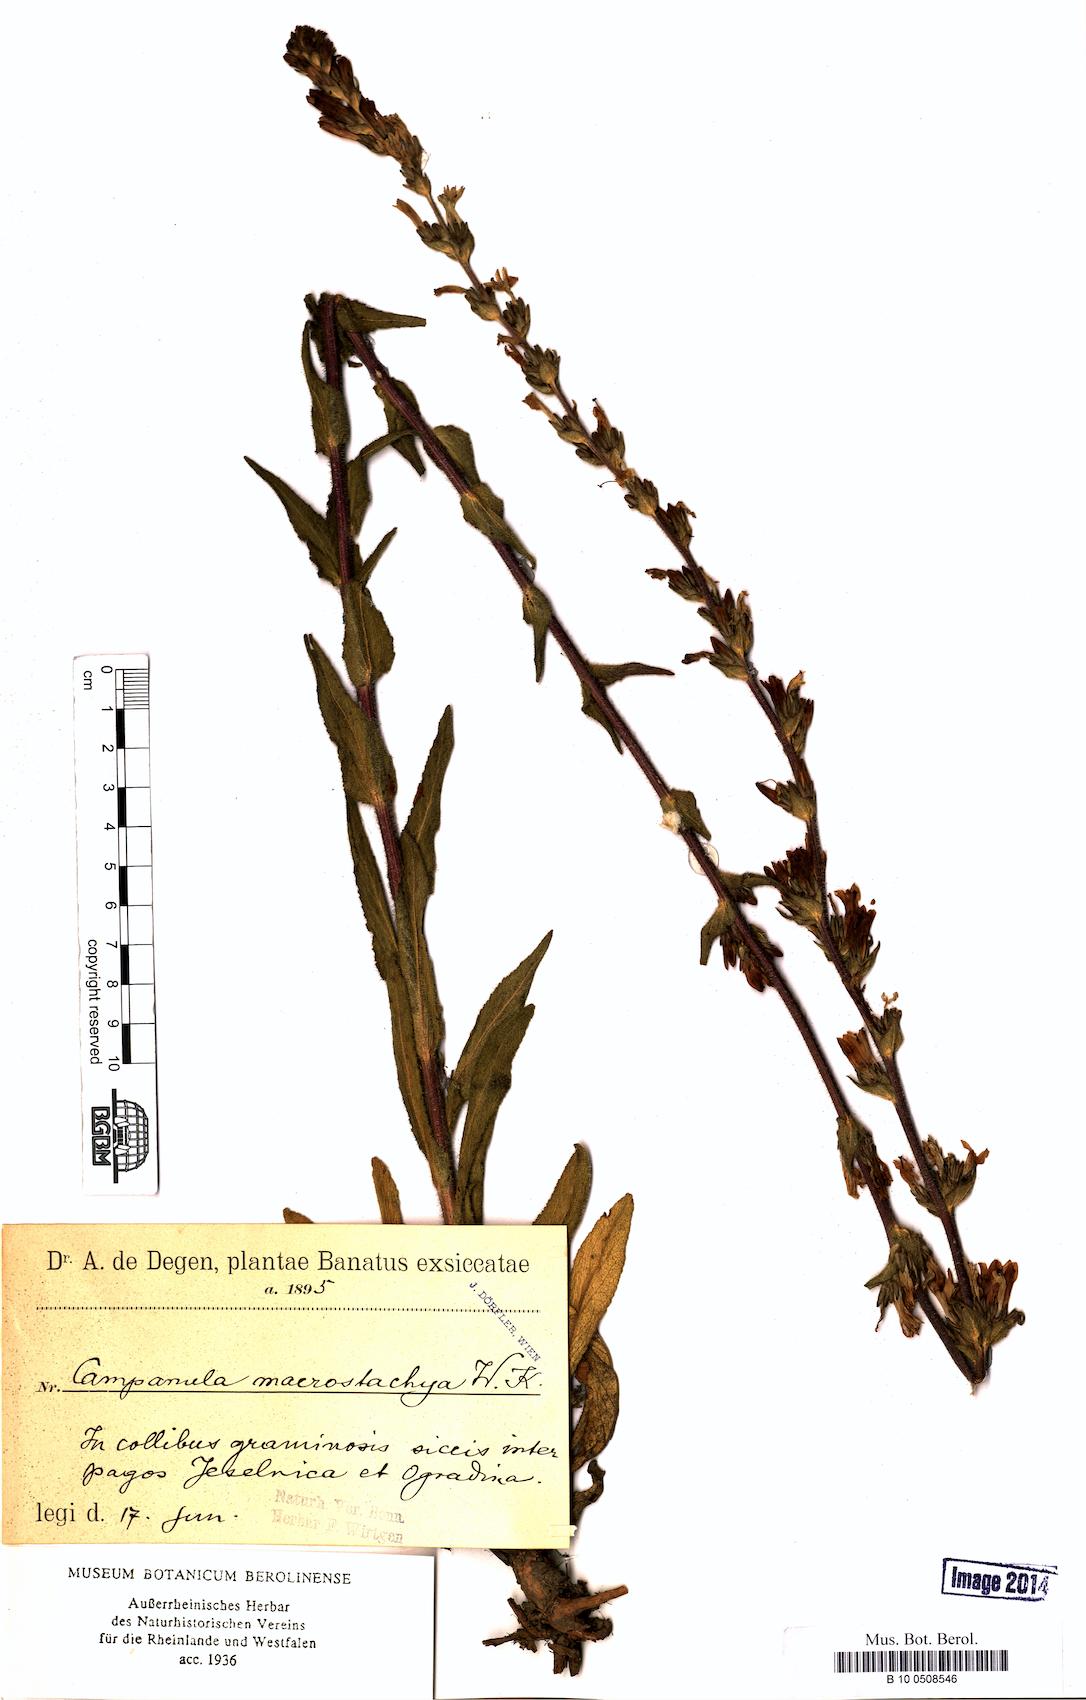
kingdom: Plantae
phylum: Tracheophyta
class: Magnoliopsida
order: Asterales
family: Campanulaceae
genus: Campanula
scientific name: Campanula macrostachya
